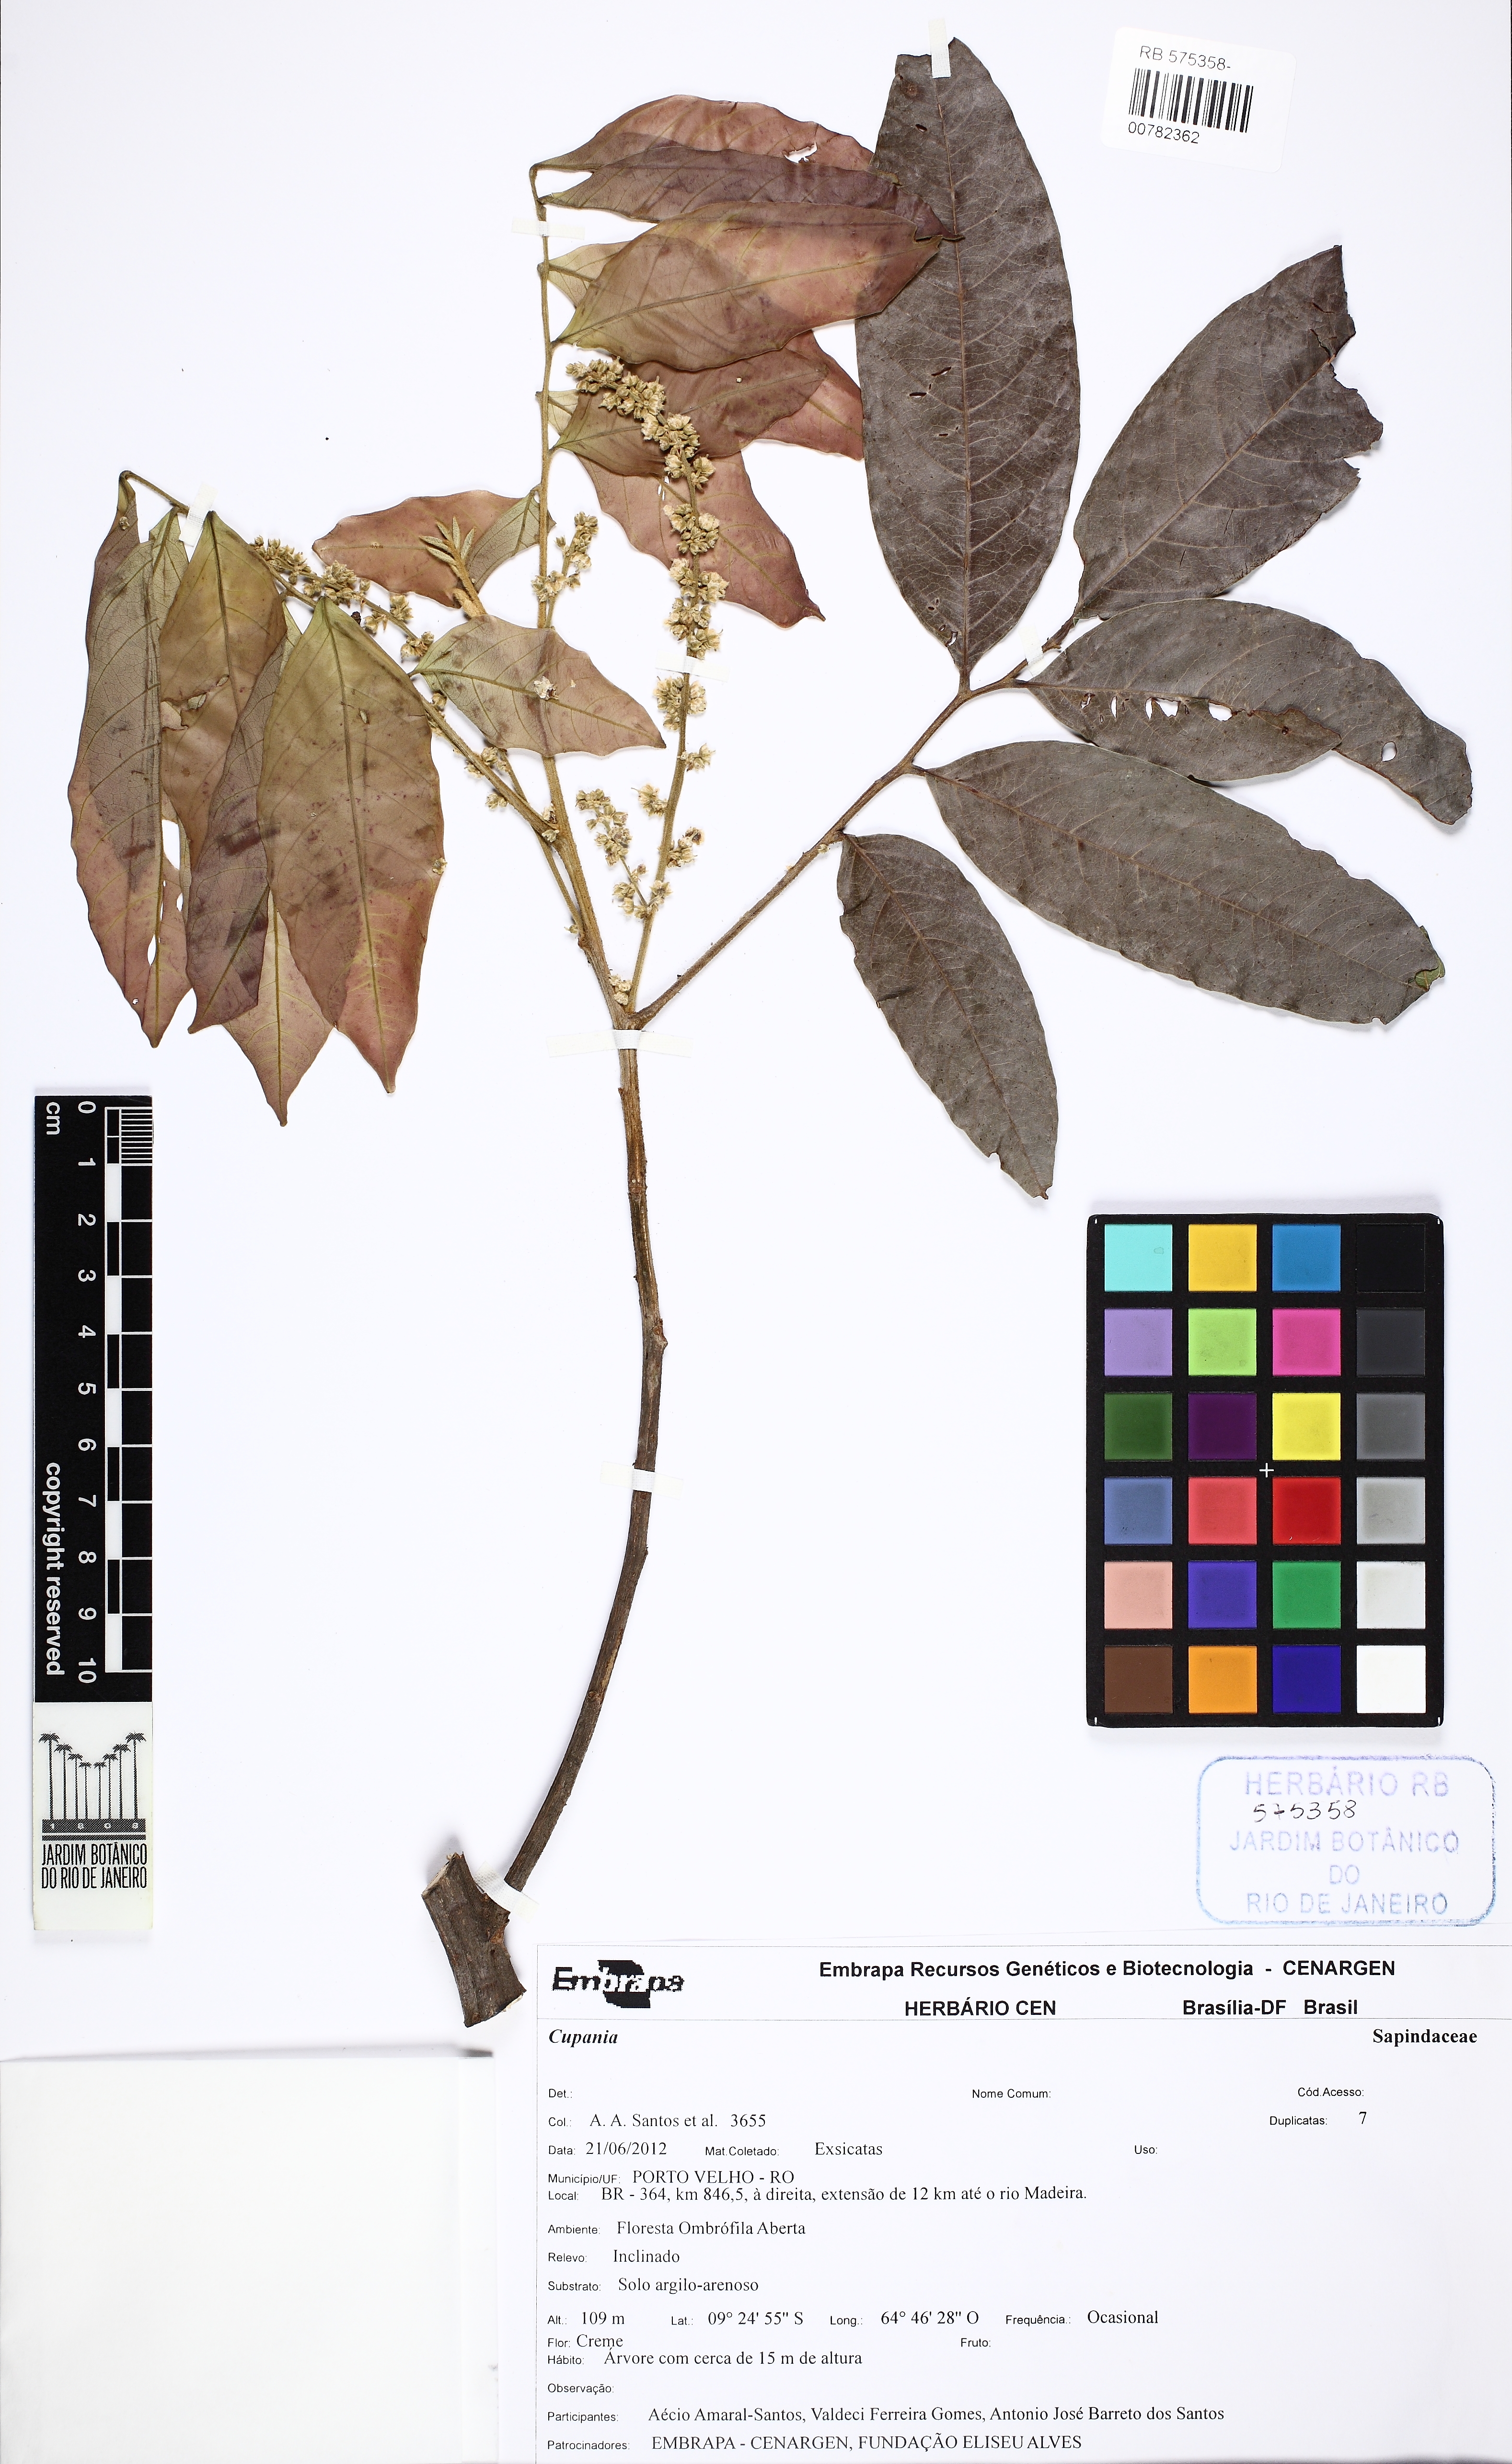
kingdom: Plantae
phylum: Tracheophyta
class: Magnoliopsida
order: Sapindales
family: Sapindaceae
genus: Cupania
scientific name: Cupania
